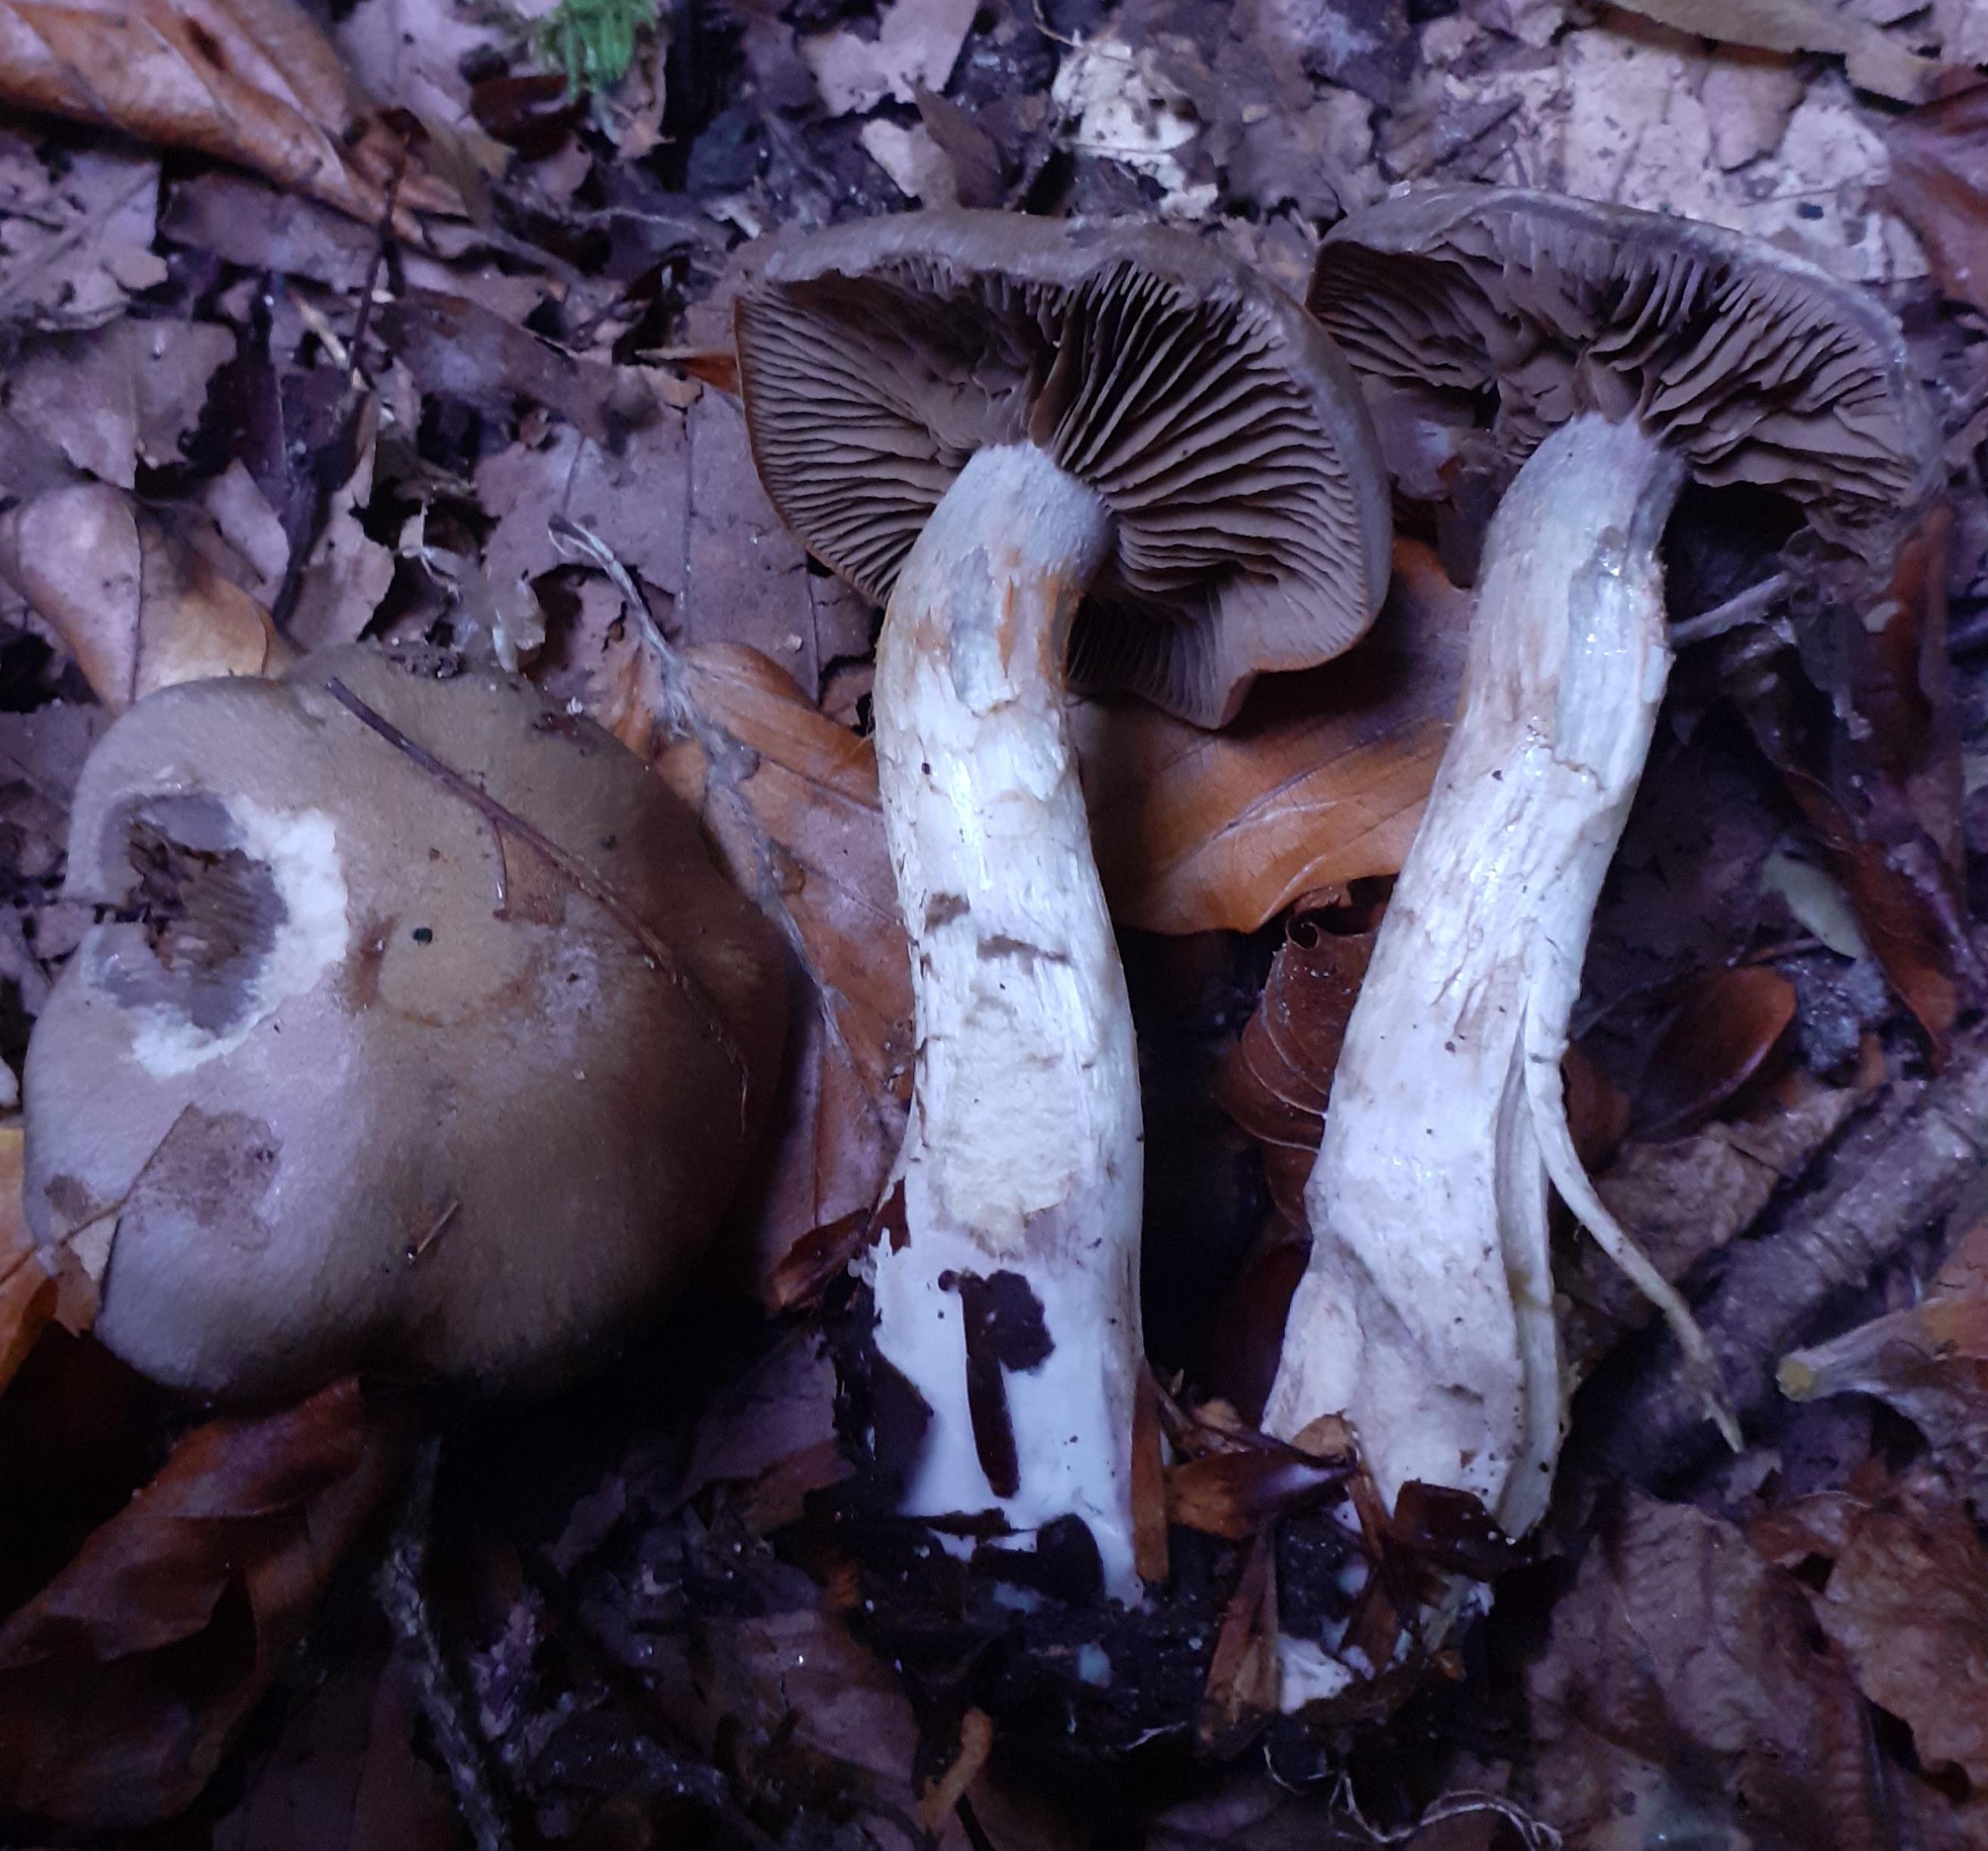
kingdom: Fungi
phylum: Basidiomycota
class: Agaricomycetes
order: Agaricales
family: Cortinariaceae
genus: Cortinarius
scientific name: Cortinarius
